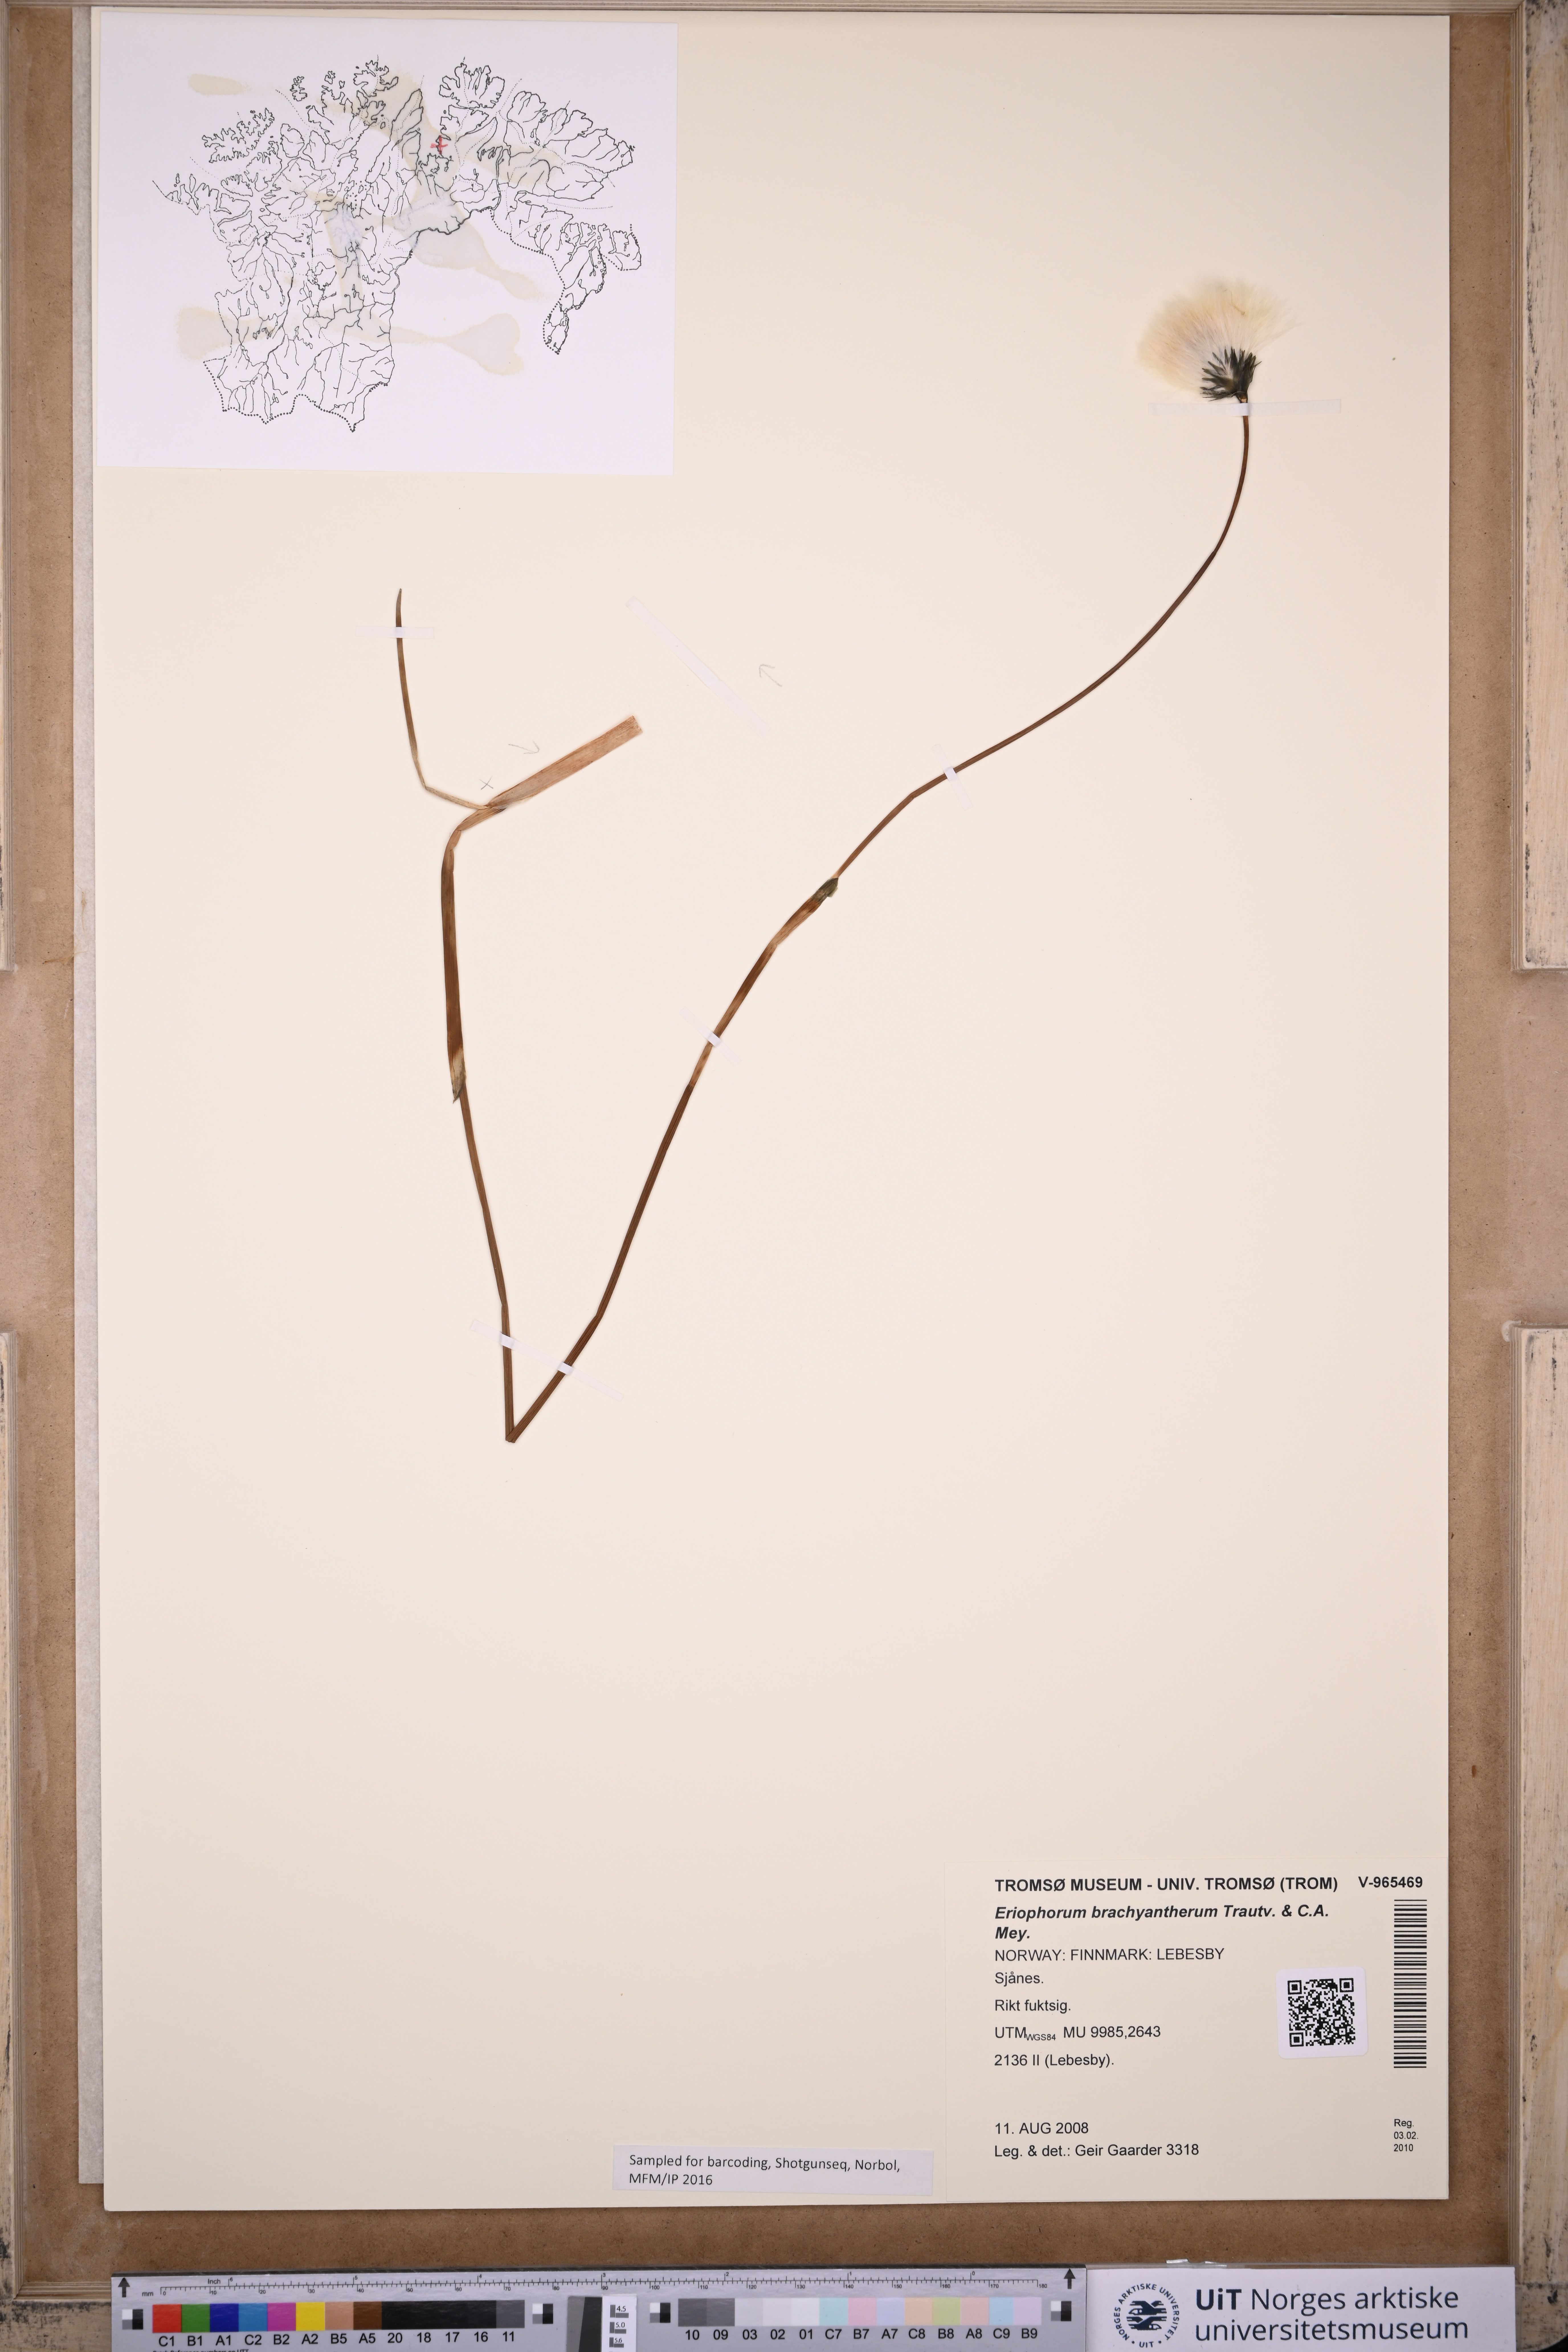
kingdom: Plantae
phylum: Tracheophyta
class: Liliopsida
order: Poales
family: Cyperaceae
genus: Eriophorum
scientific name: Eriophorum brachyantherum
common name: Closed-sheathed cottongrass
